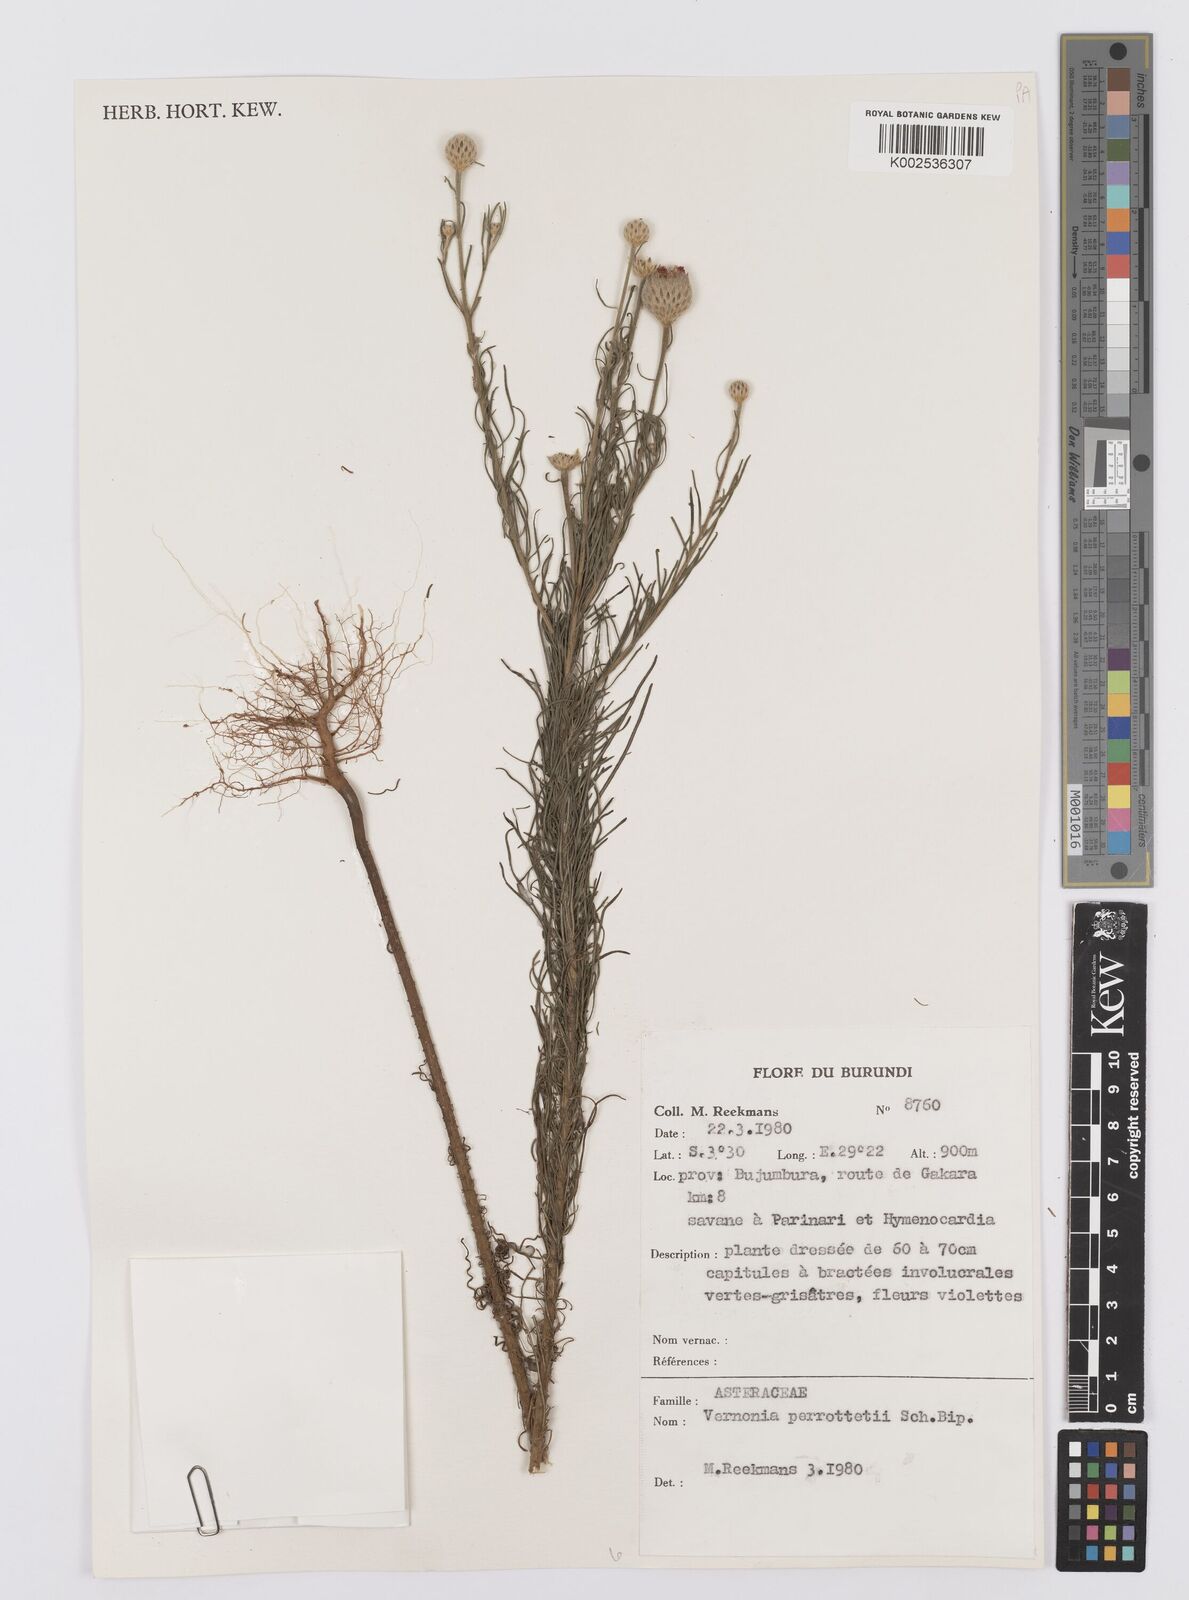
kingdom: Plantae
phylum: Tracheophyta
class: Magnoliopsida
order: Asterales
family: Asteraceae
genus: Crystallopollen
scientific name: Crystallopollen serratuloides
